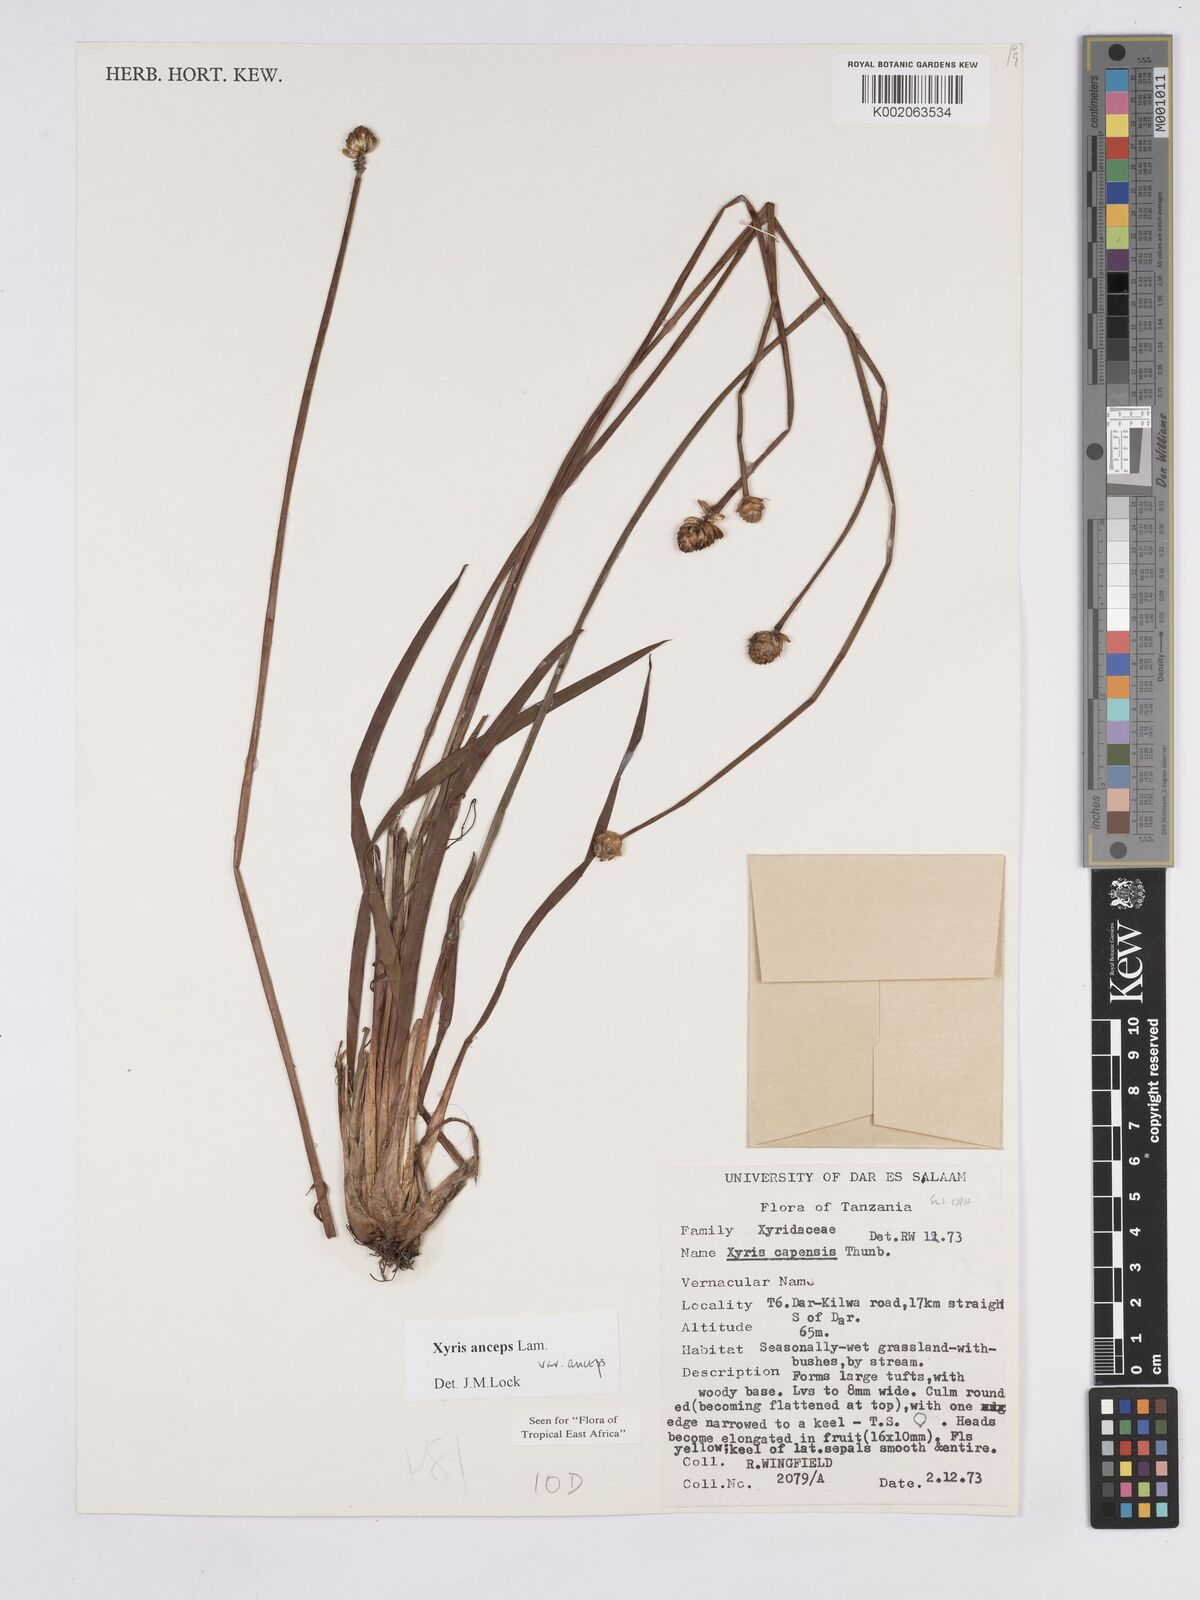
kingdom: Plantae
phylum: Tracheophyta
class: Liliopsida
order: Poales
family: Xyridaceae
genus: Xyris
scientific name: Xyris anceps
